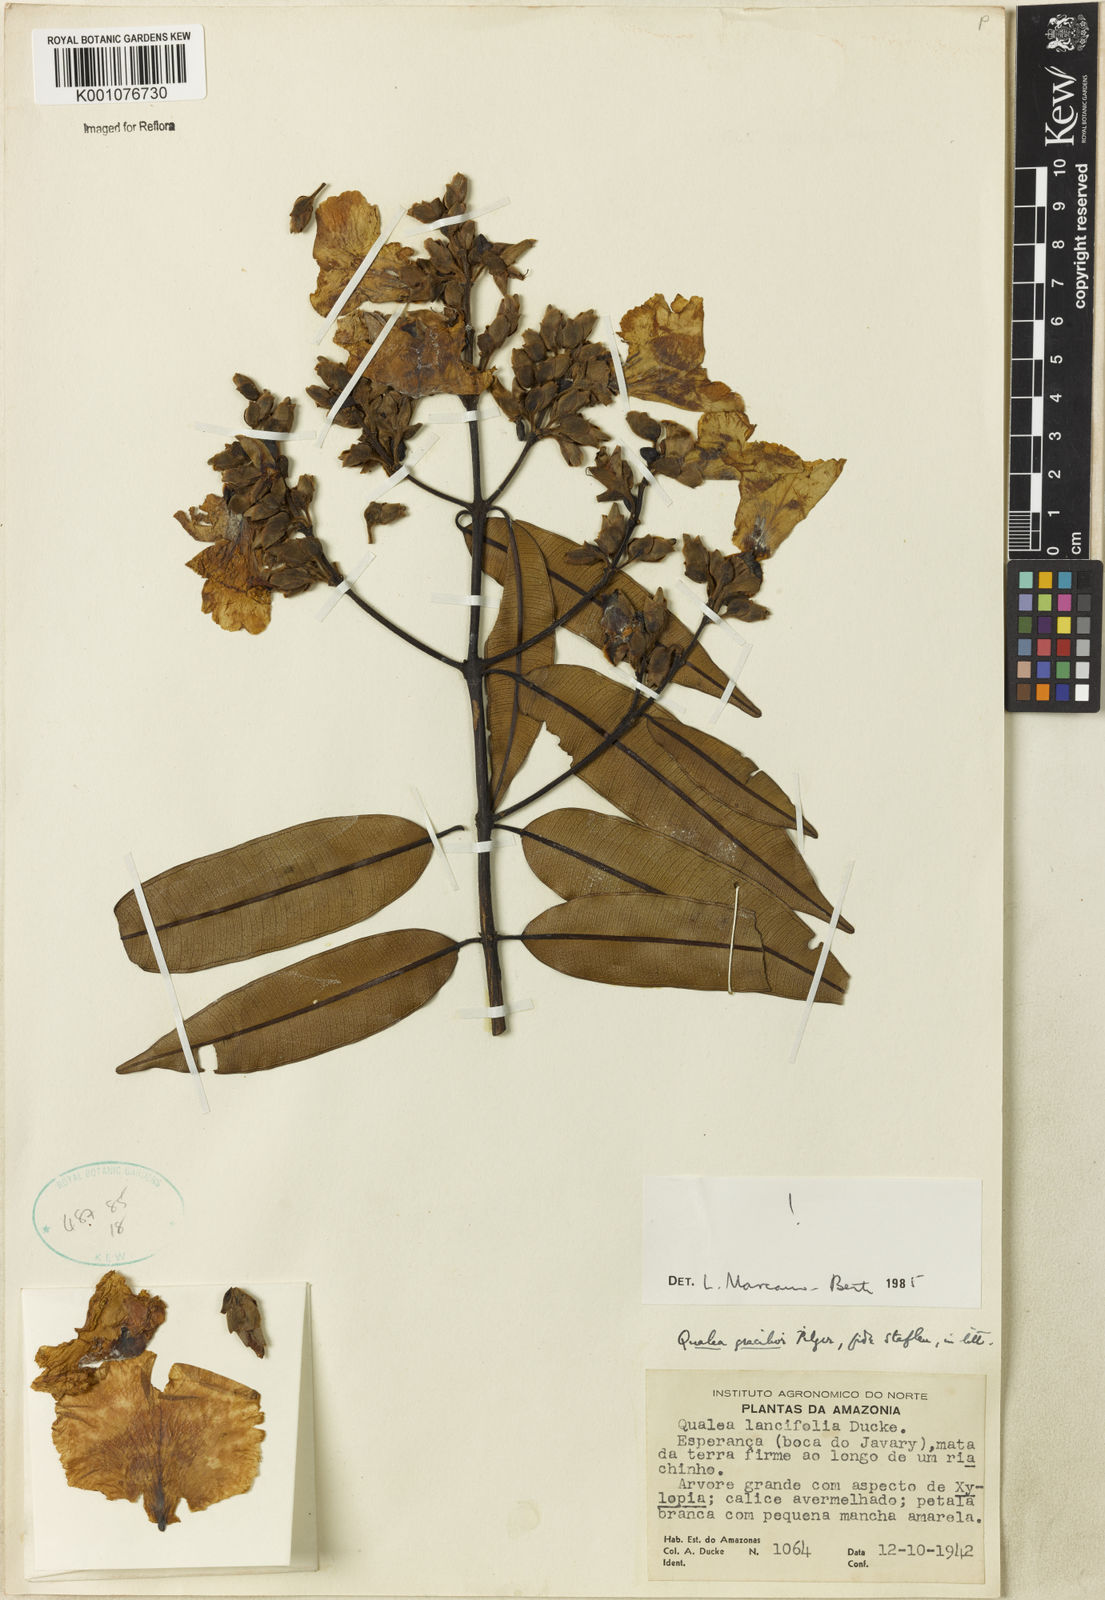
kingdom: Plantae
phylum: Tracheophyta
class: Magnoliopsida
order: Myrtales
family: Vochysiaceae
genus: Qualea
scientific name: Qualea gracilior
